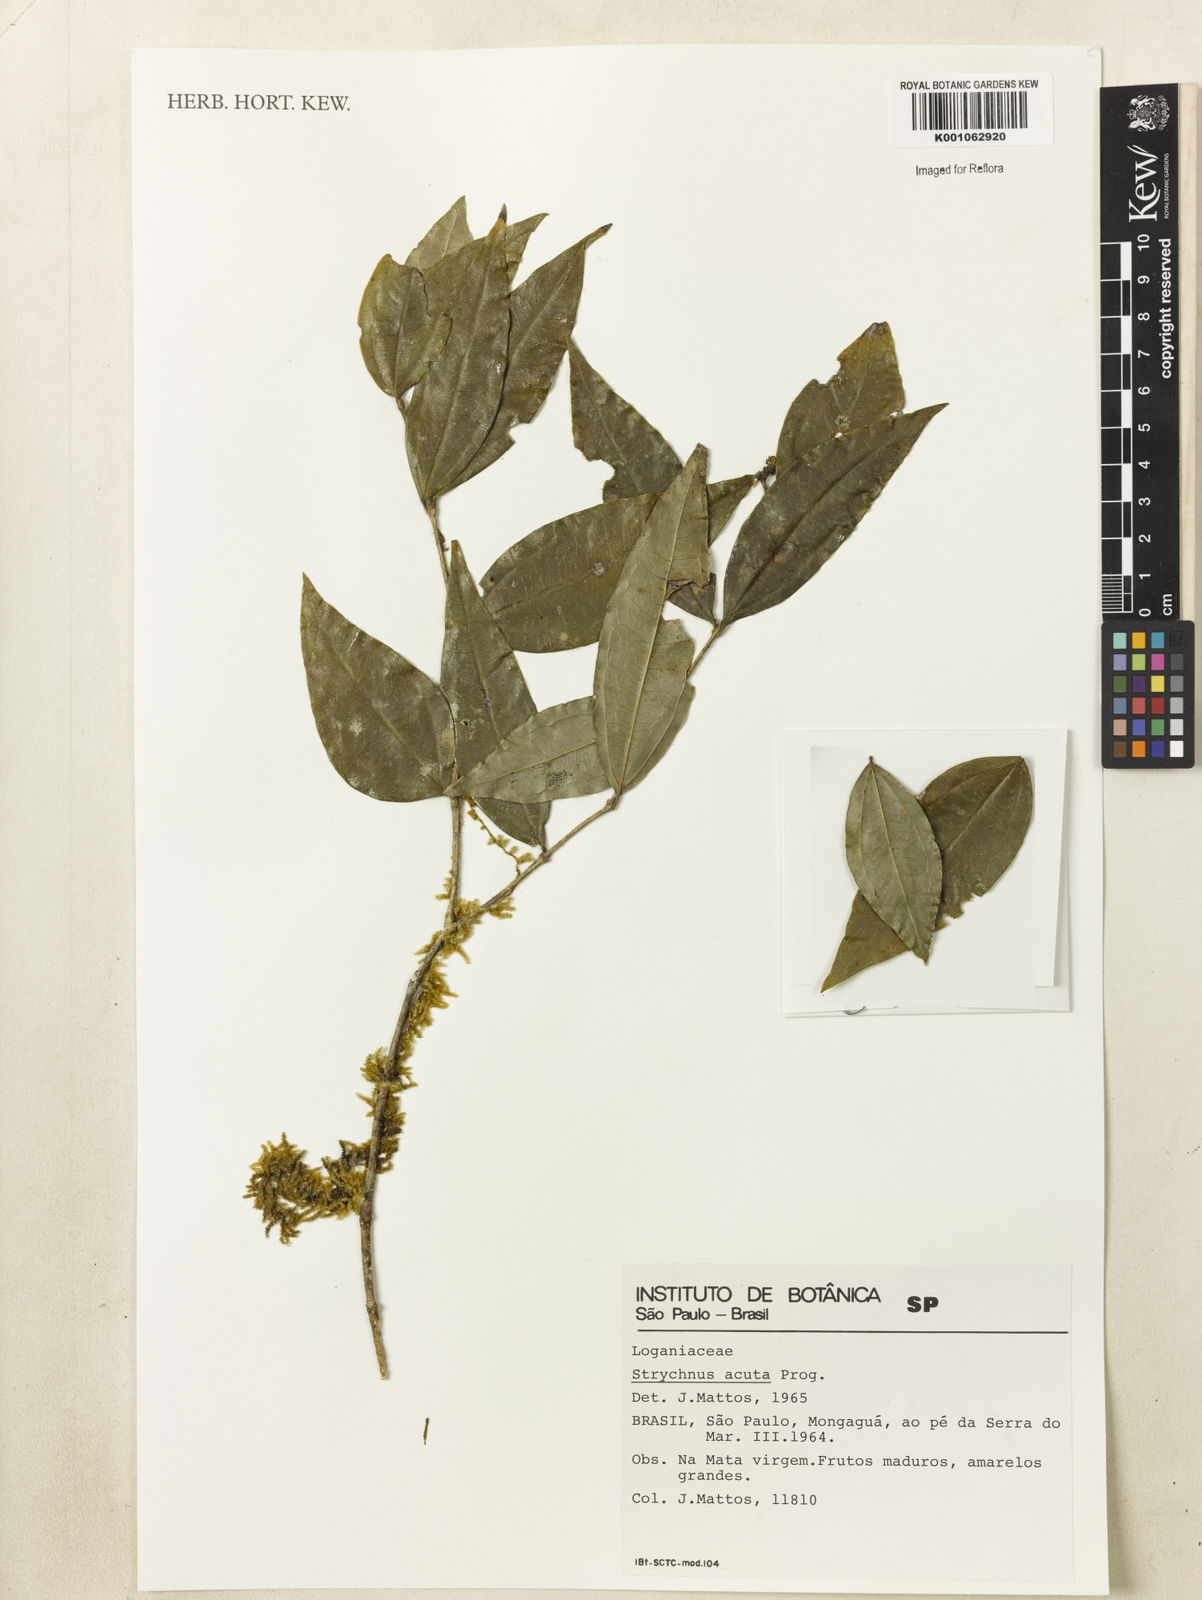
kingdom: Plantae
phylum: Tracheophyta
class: Magnoliopsida
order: Gentianales
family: Loganiaceae
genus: Strychnos
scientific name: Strychnos acuta
